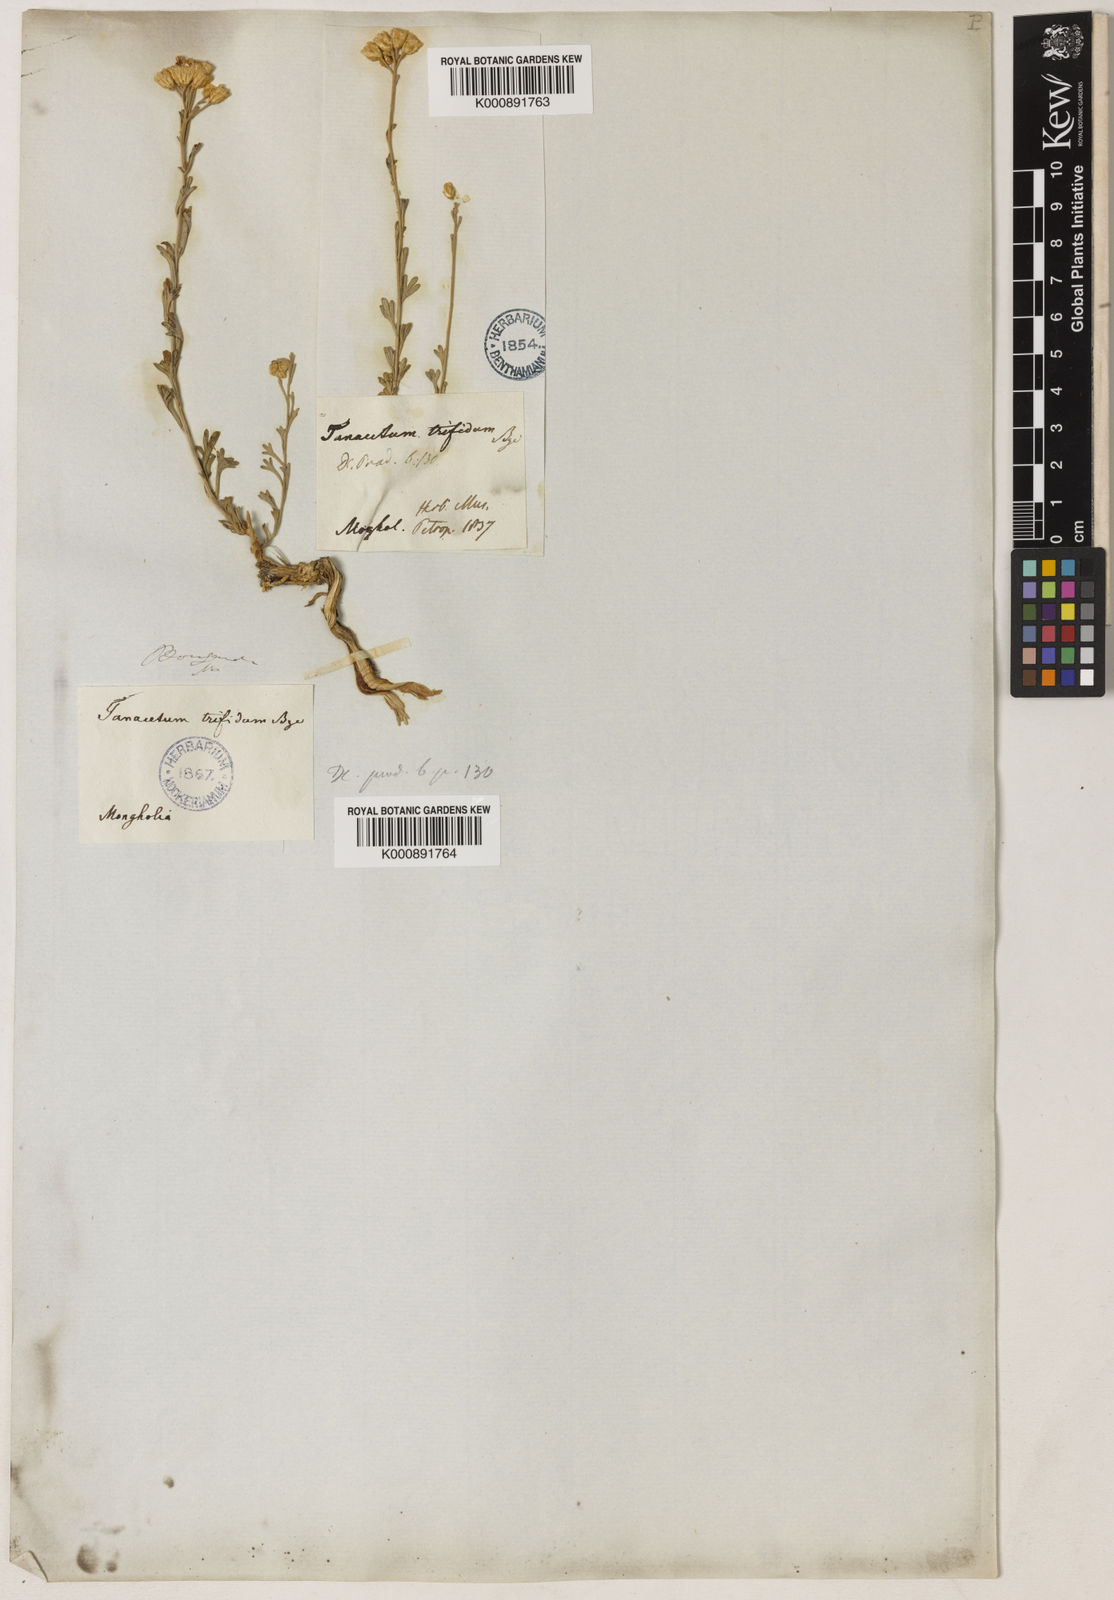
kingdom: Plantae
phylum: Tracheophyta
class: Magnoliopsida
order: Asterales
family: Asteraceae
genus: Ajania
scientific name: Ajania trifida
